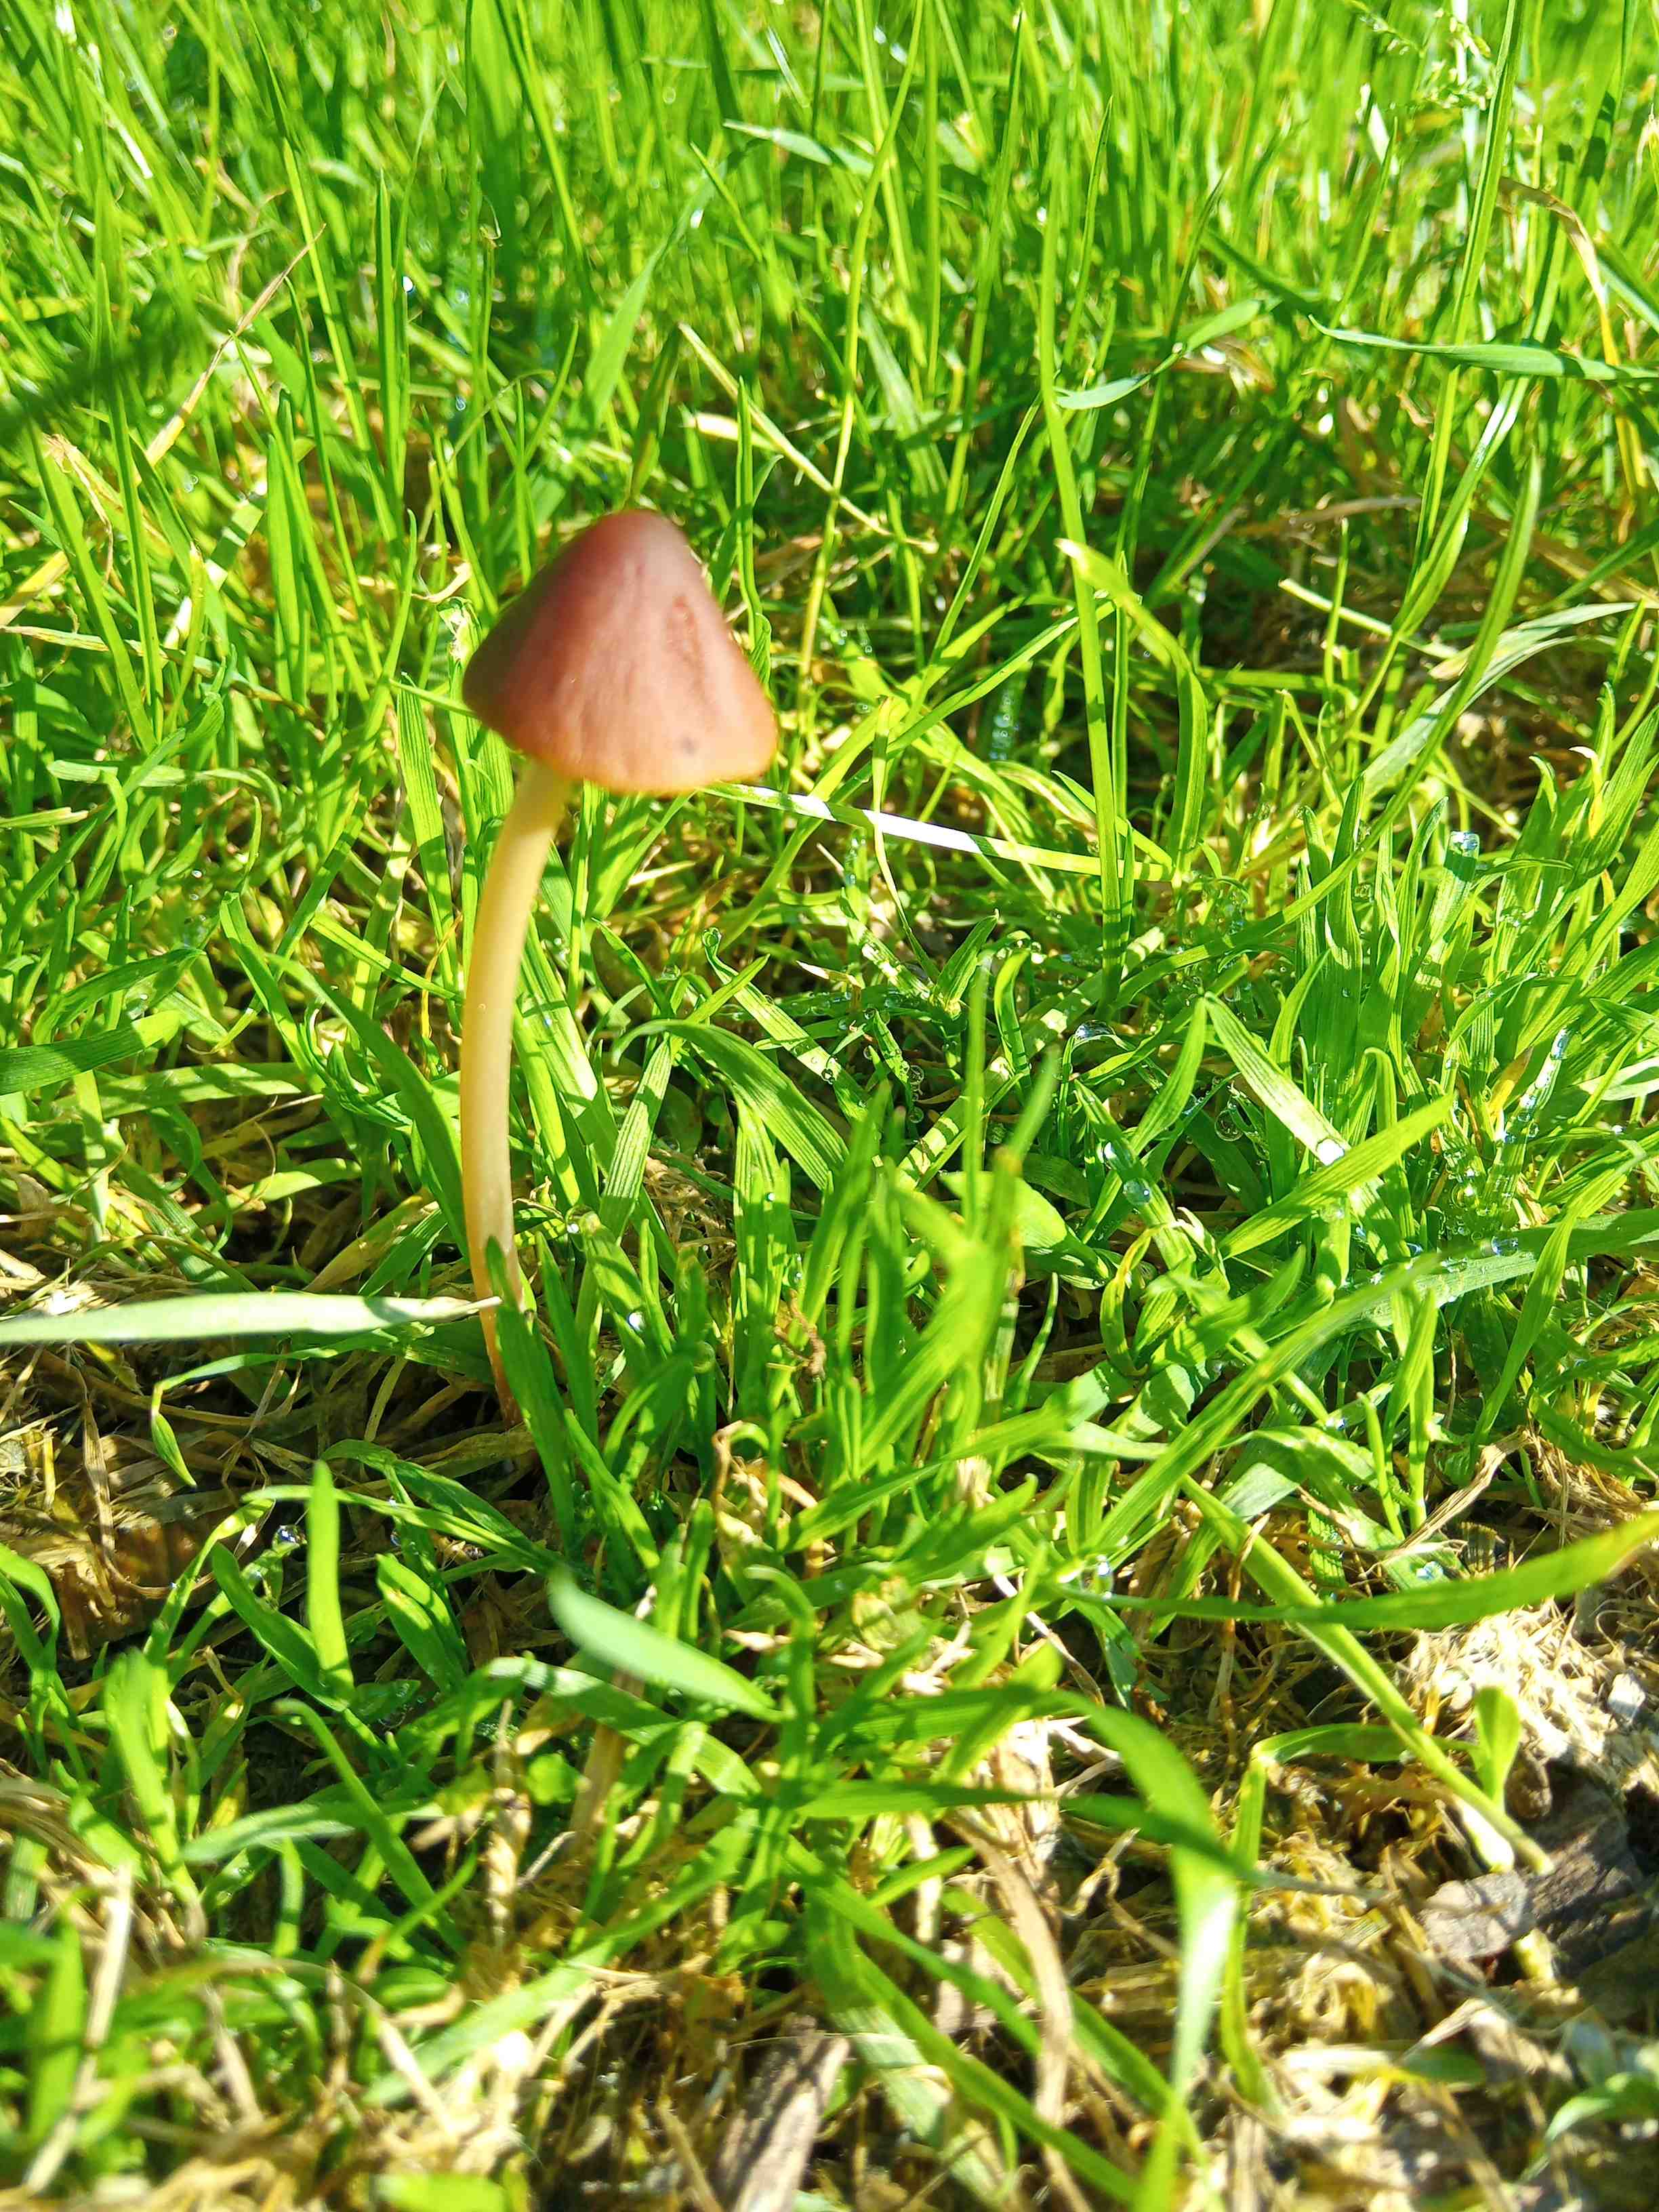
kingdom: Fungi
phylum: Basidiomycota
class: Agaricomycetes
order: Agaricales
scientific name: Agaricales
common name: champignonordenen
